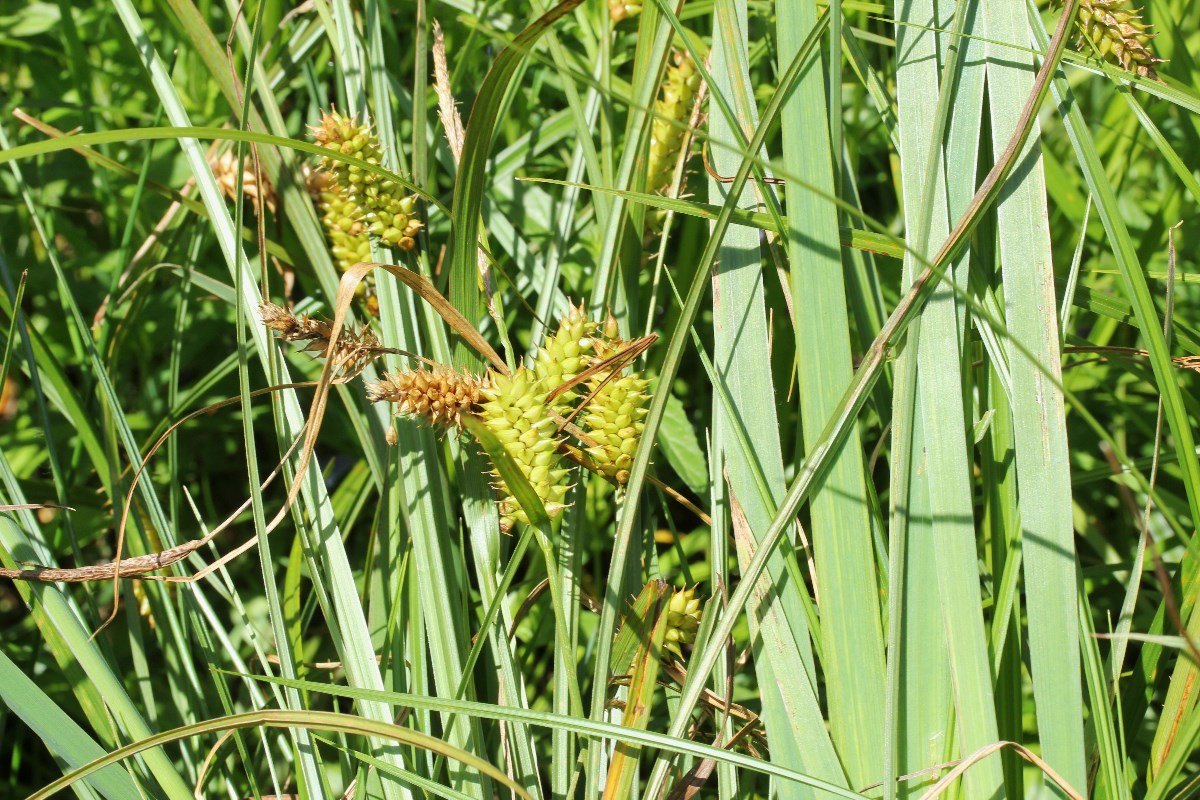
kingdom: Fungi
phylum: Ascomycota
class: Leotiomycetes
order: Helotiales
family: Helotiaceae
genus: Hymenoscyphus
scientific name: Hymenoscyphus
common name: stilkskive
